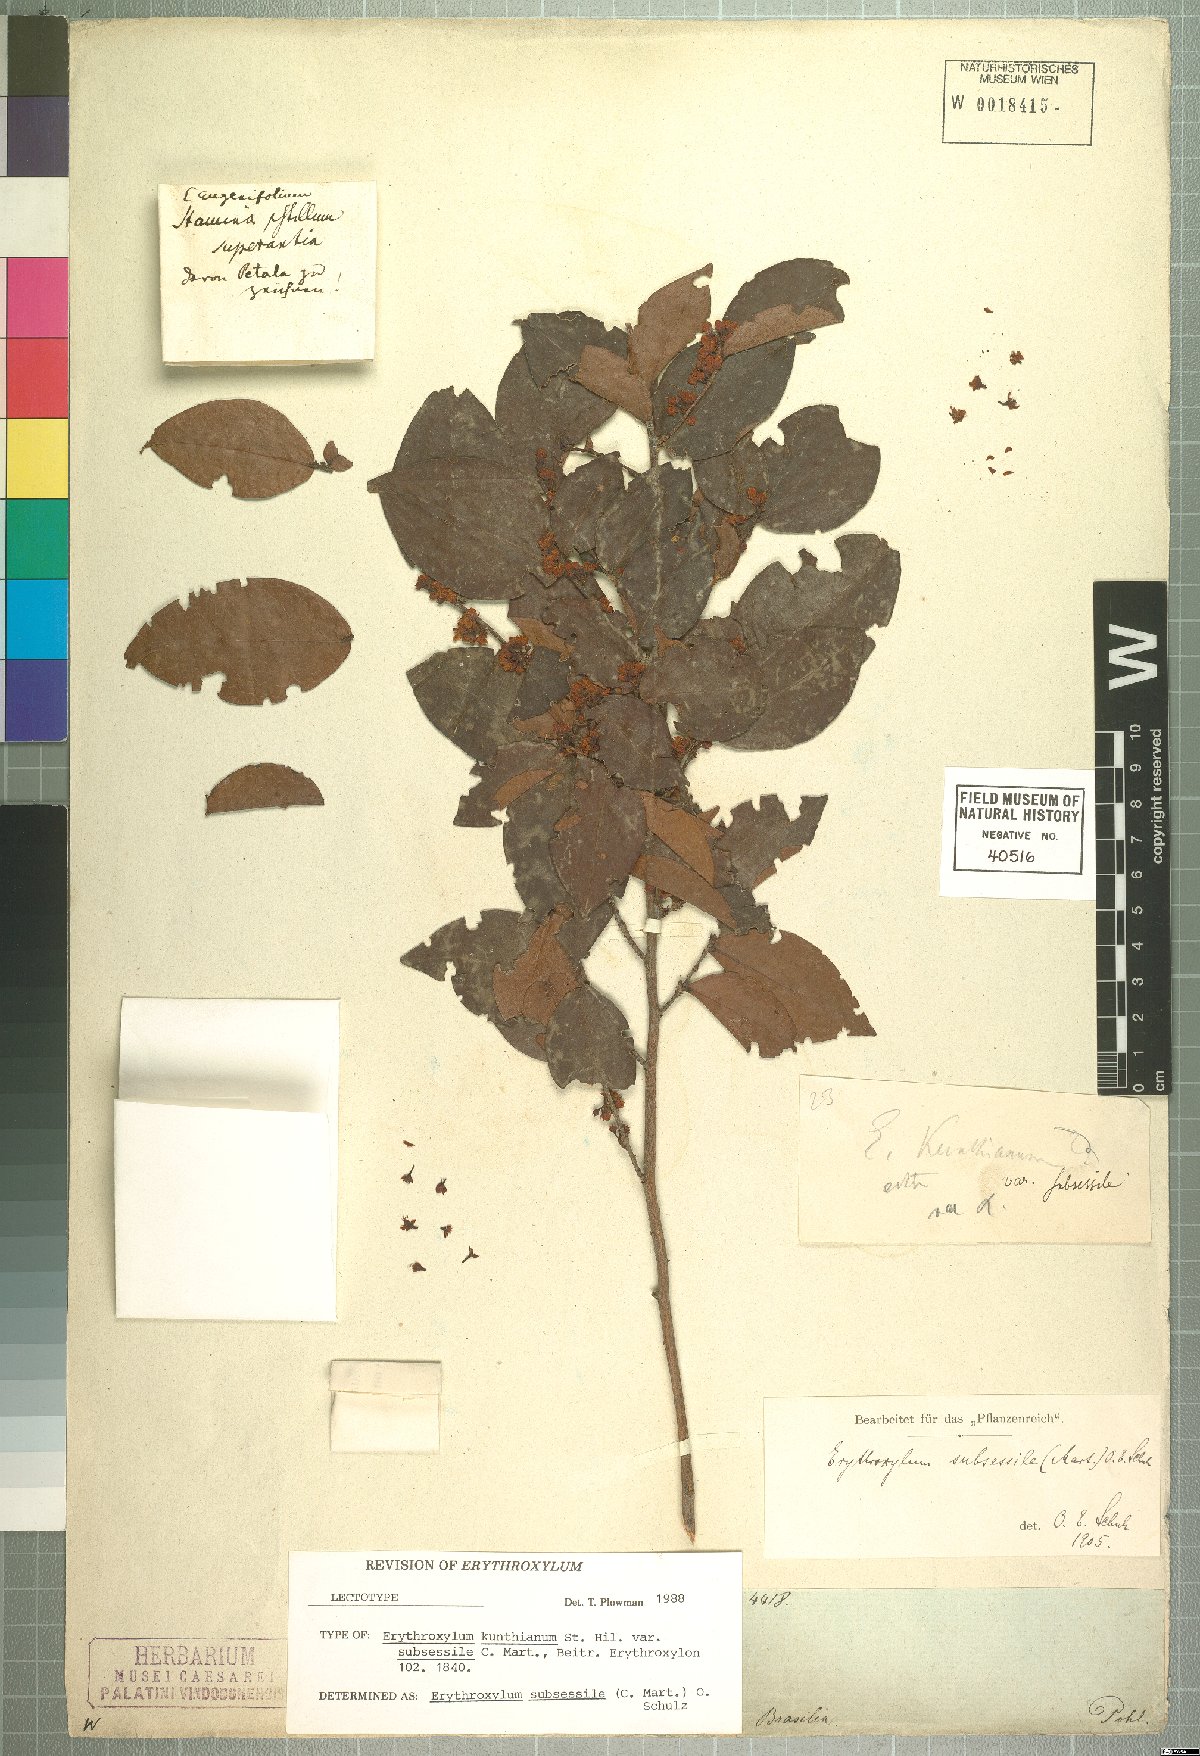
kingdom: Plantae
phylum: Tracheophyta
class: Magnoliopsida
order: Malpighiales
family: Erythroxylaceae
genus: Erythroxylum
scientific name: Erythroxylum macrocalyx
